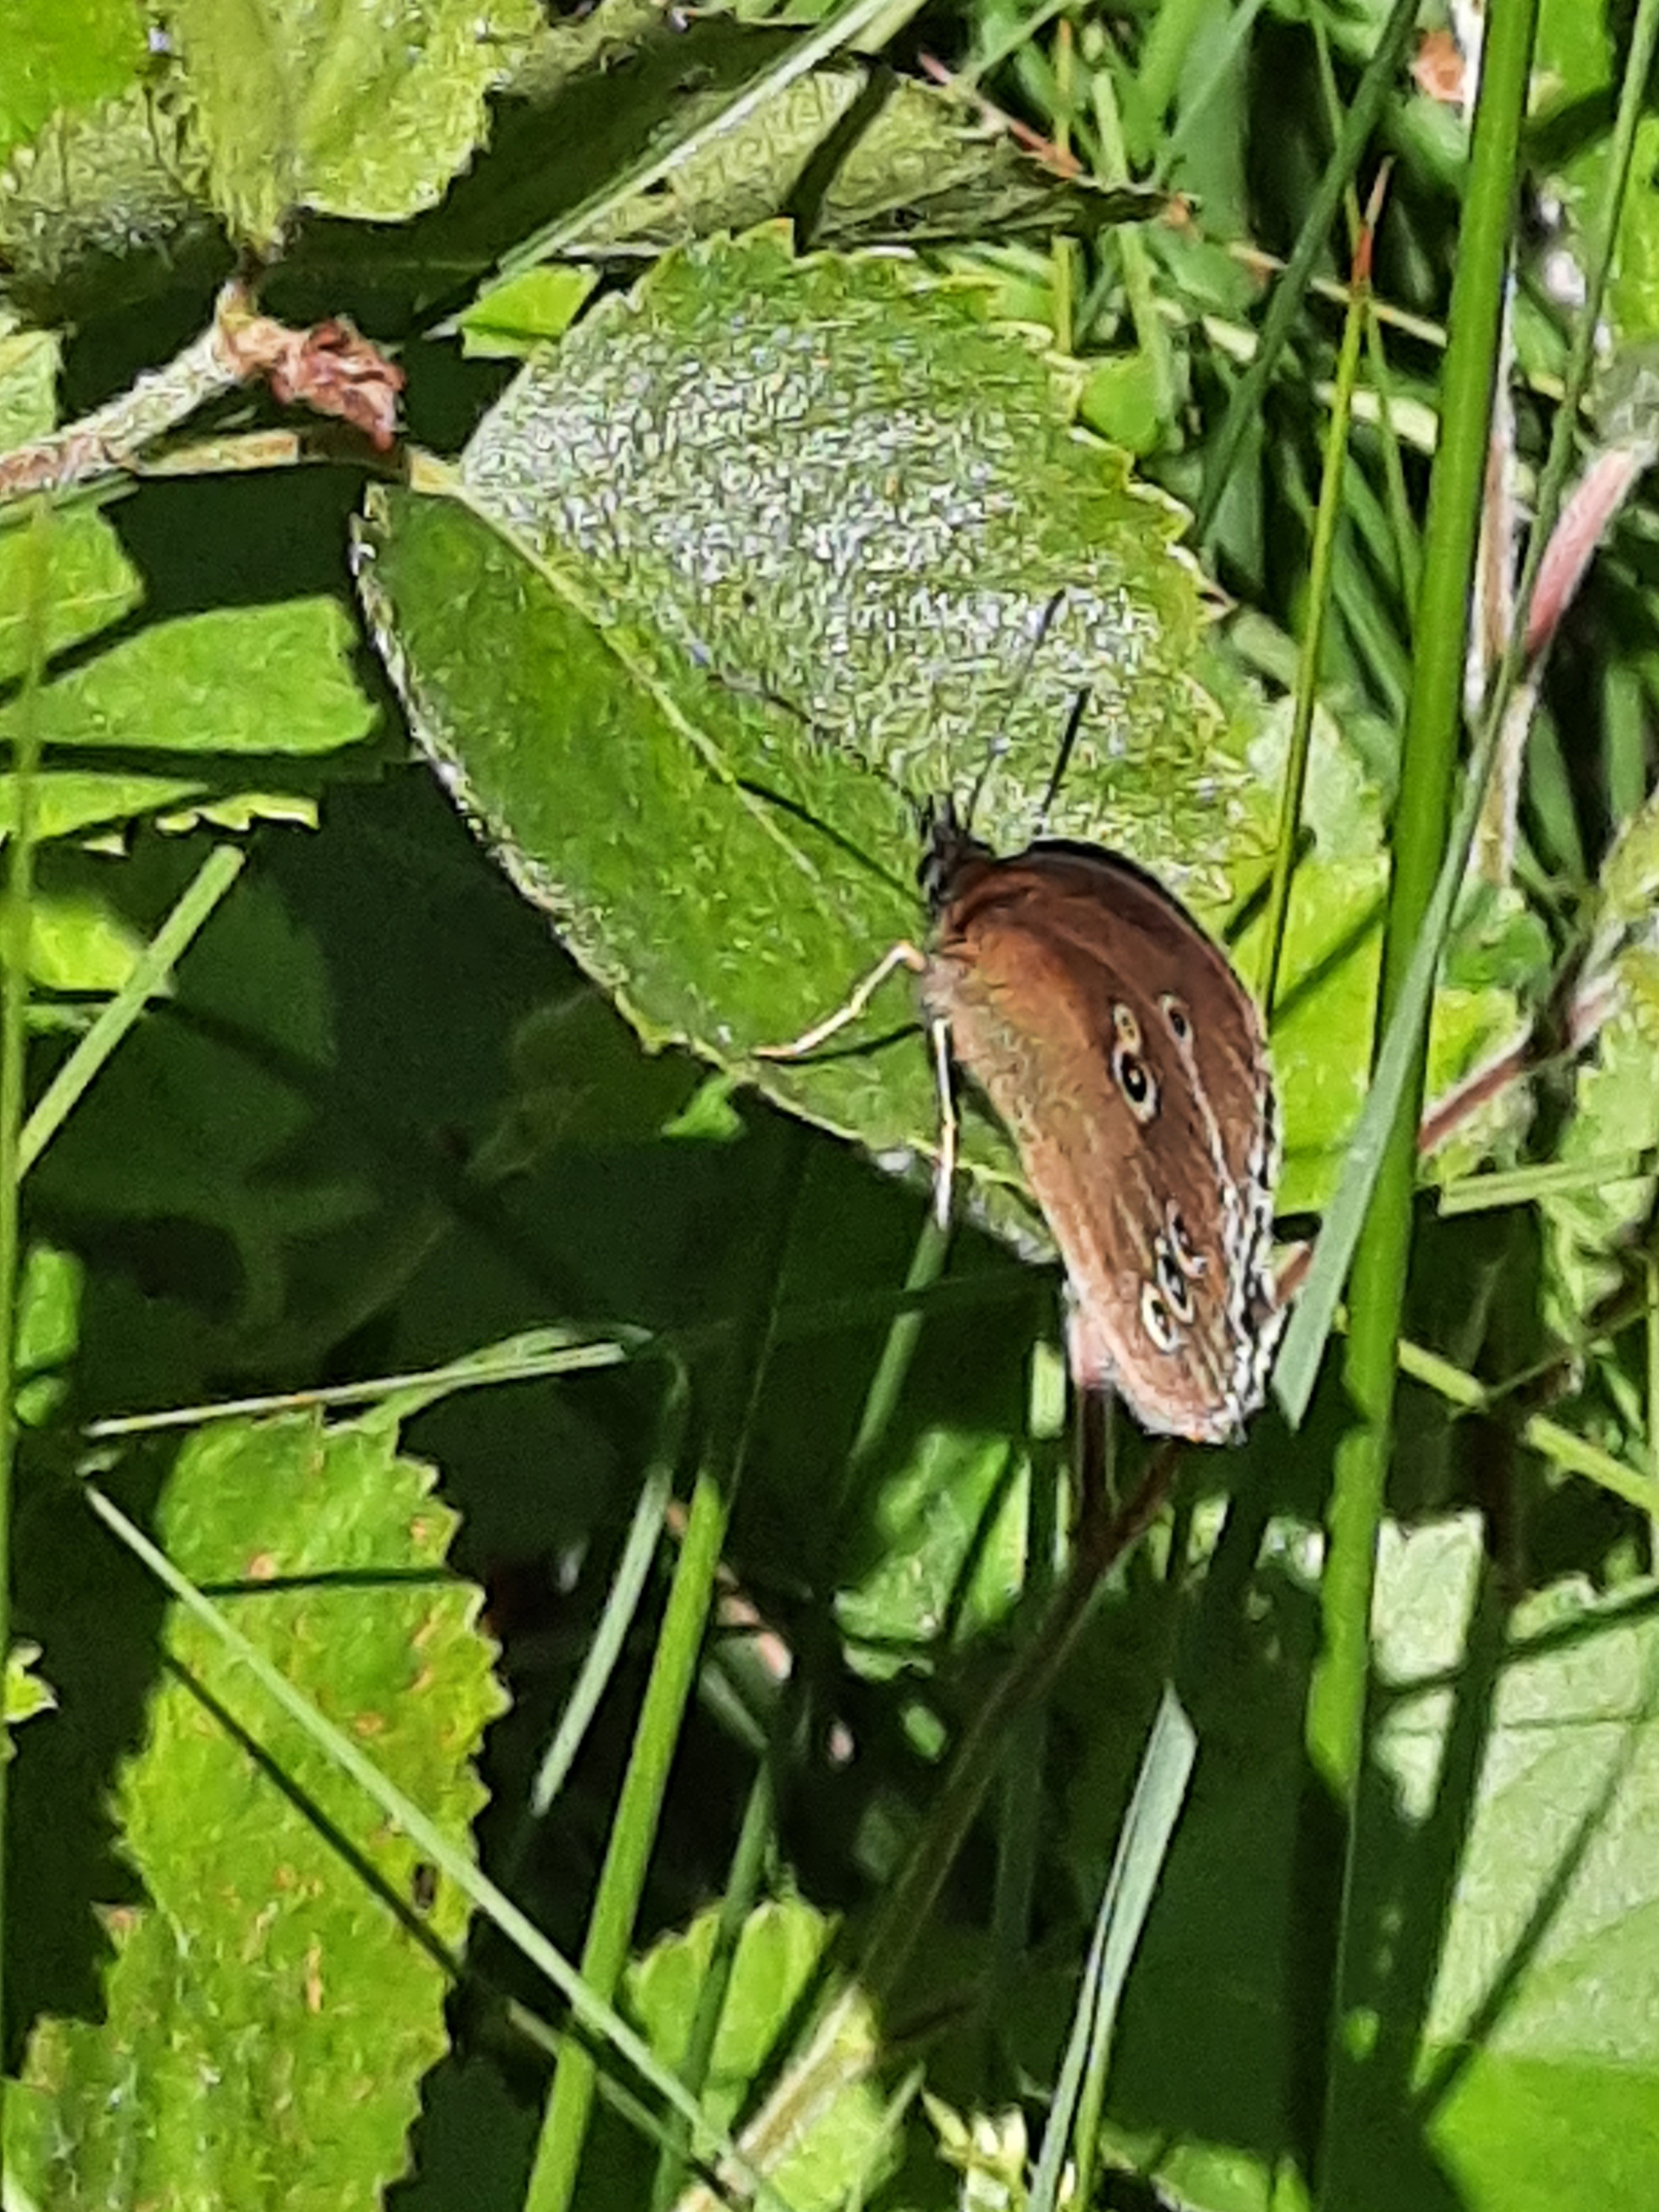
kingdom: Animalia
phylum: Arthropoda
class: Insecta
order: Lepidoptera
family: Nymphalidae
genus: Aphantopus
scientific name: Aphantopus hyperantus
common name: Engrandøje
